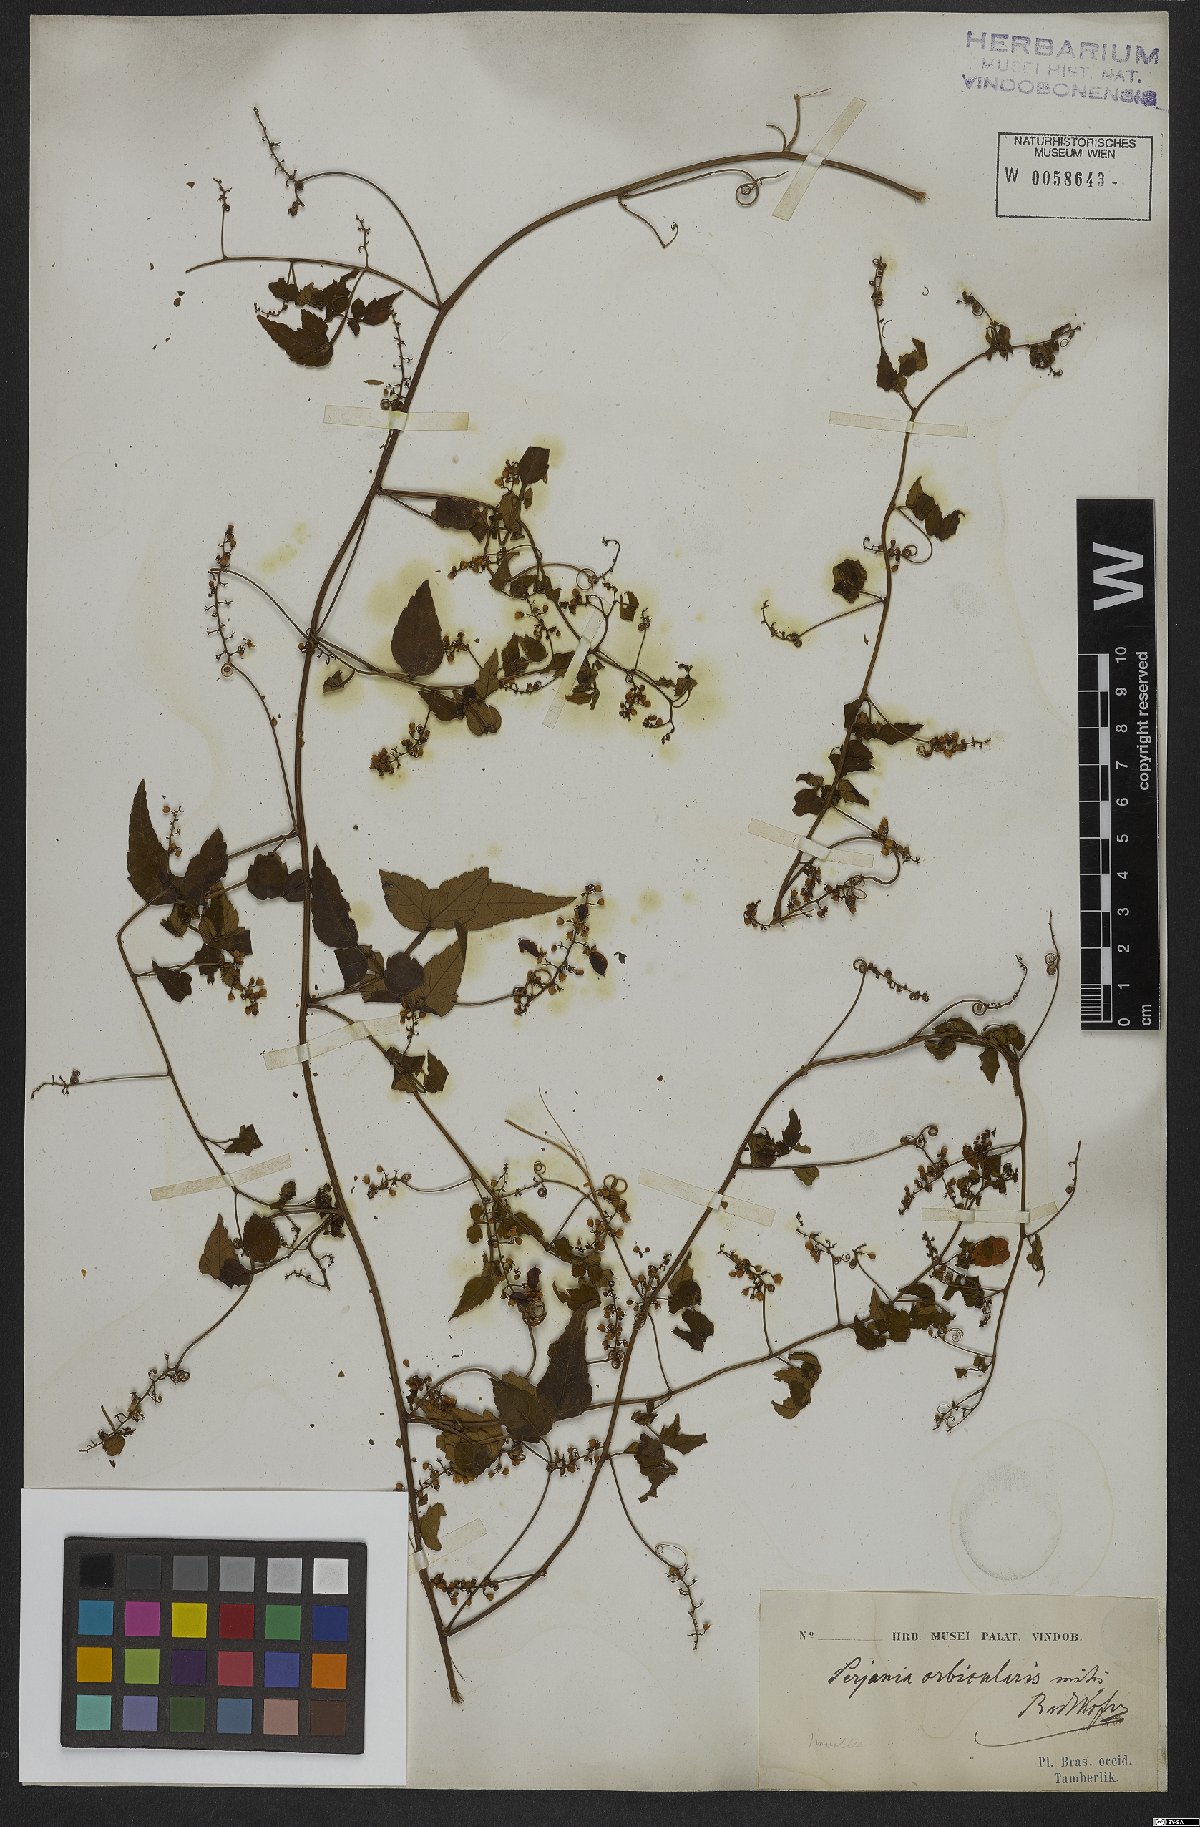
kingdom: Plantae
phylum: Tracheophyta
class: Magnoliopsida
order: Sapindales
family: Sapindaceae
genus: Serjania
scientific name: Serjania orbicularis
